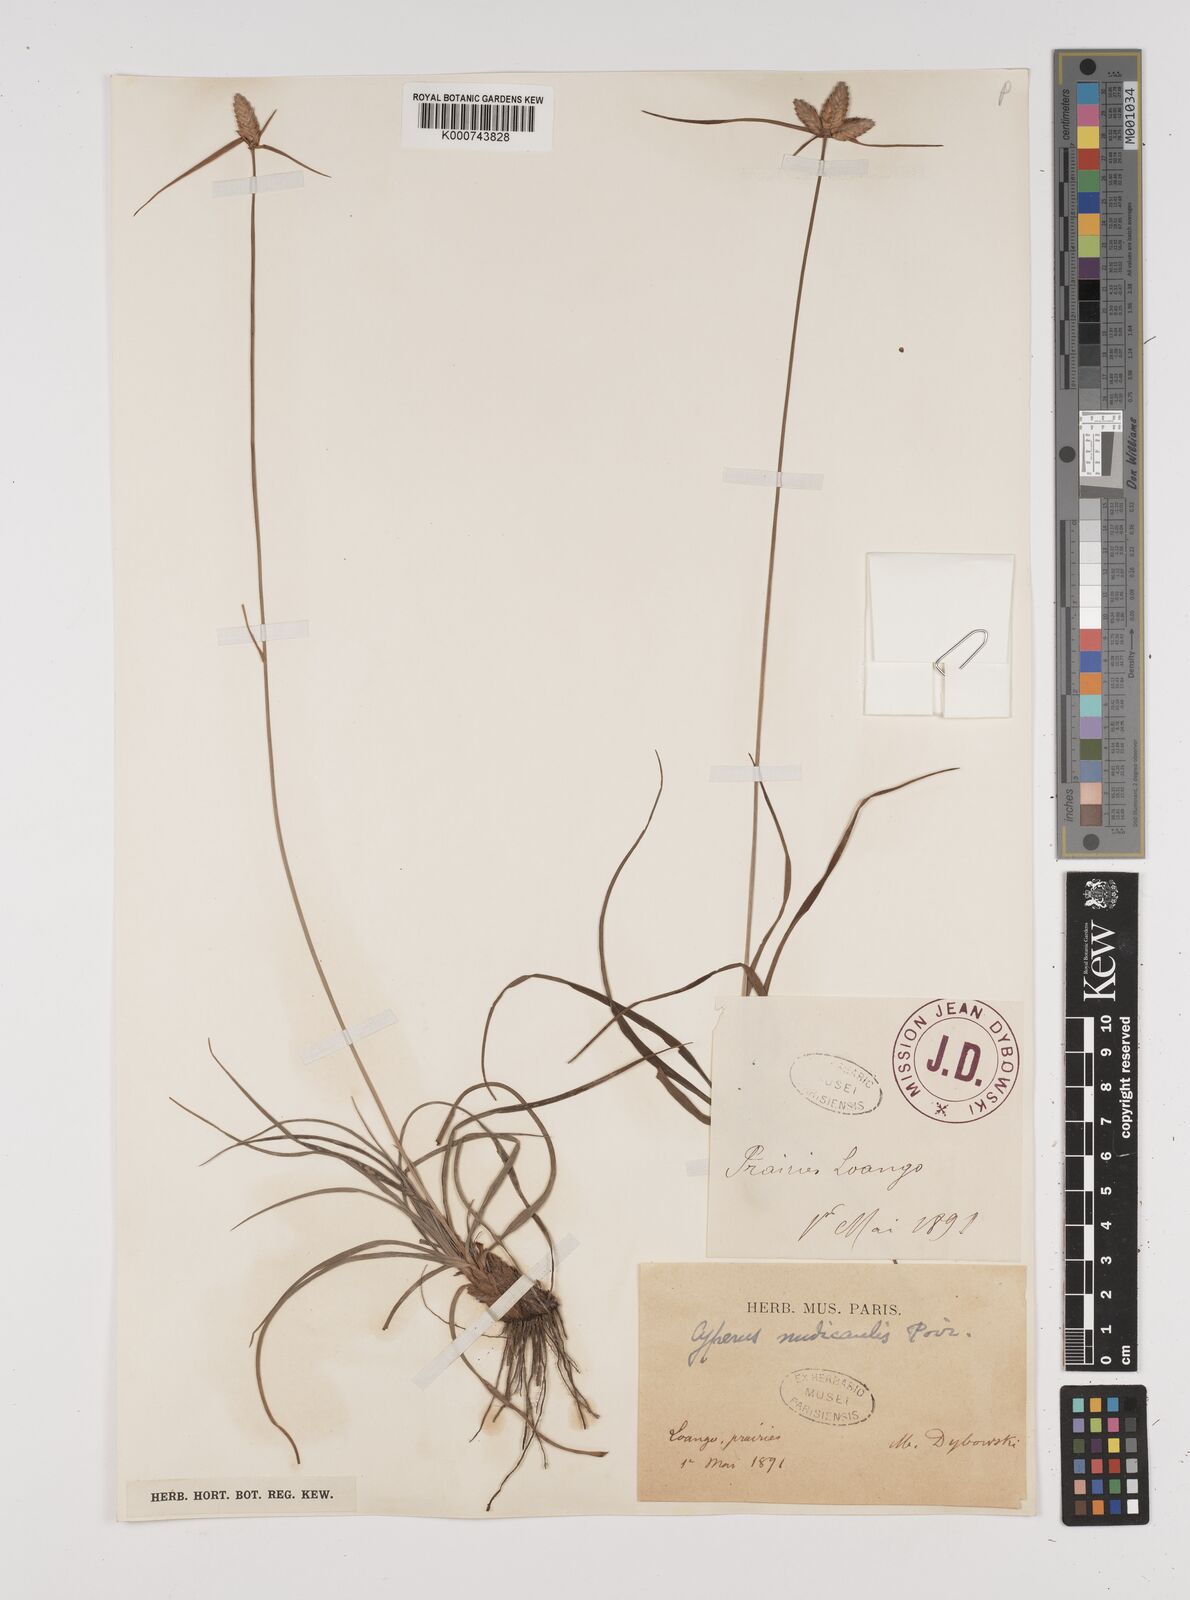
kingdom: Plantae
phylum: Tracheophyta
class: Liliopsida
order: Poales
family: Cyperaceae
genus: Cyperus
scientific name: Cyperus margaritaceus
